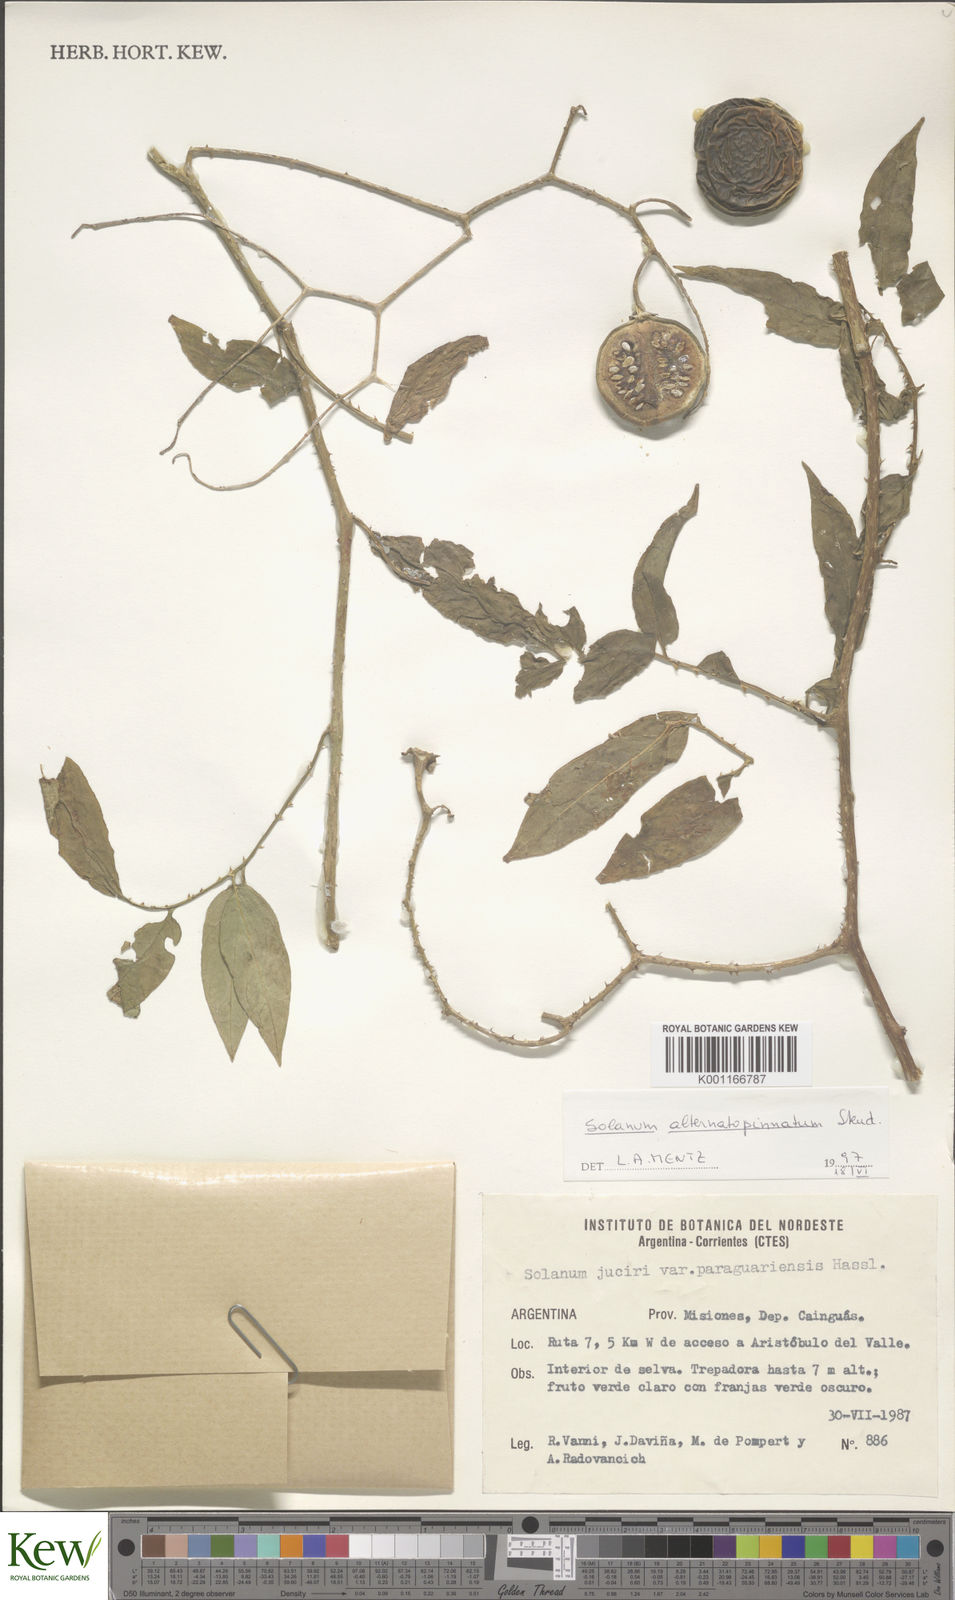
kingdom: Plantae
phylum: Tracheophyta
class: Magnoliopsida
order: Solanales
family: Solanaceae
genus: Solanum
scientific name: Solanum alternatopinnatum
